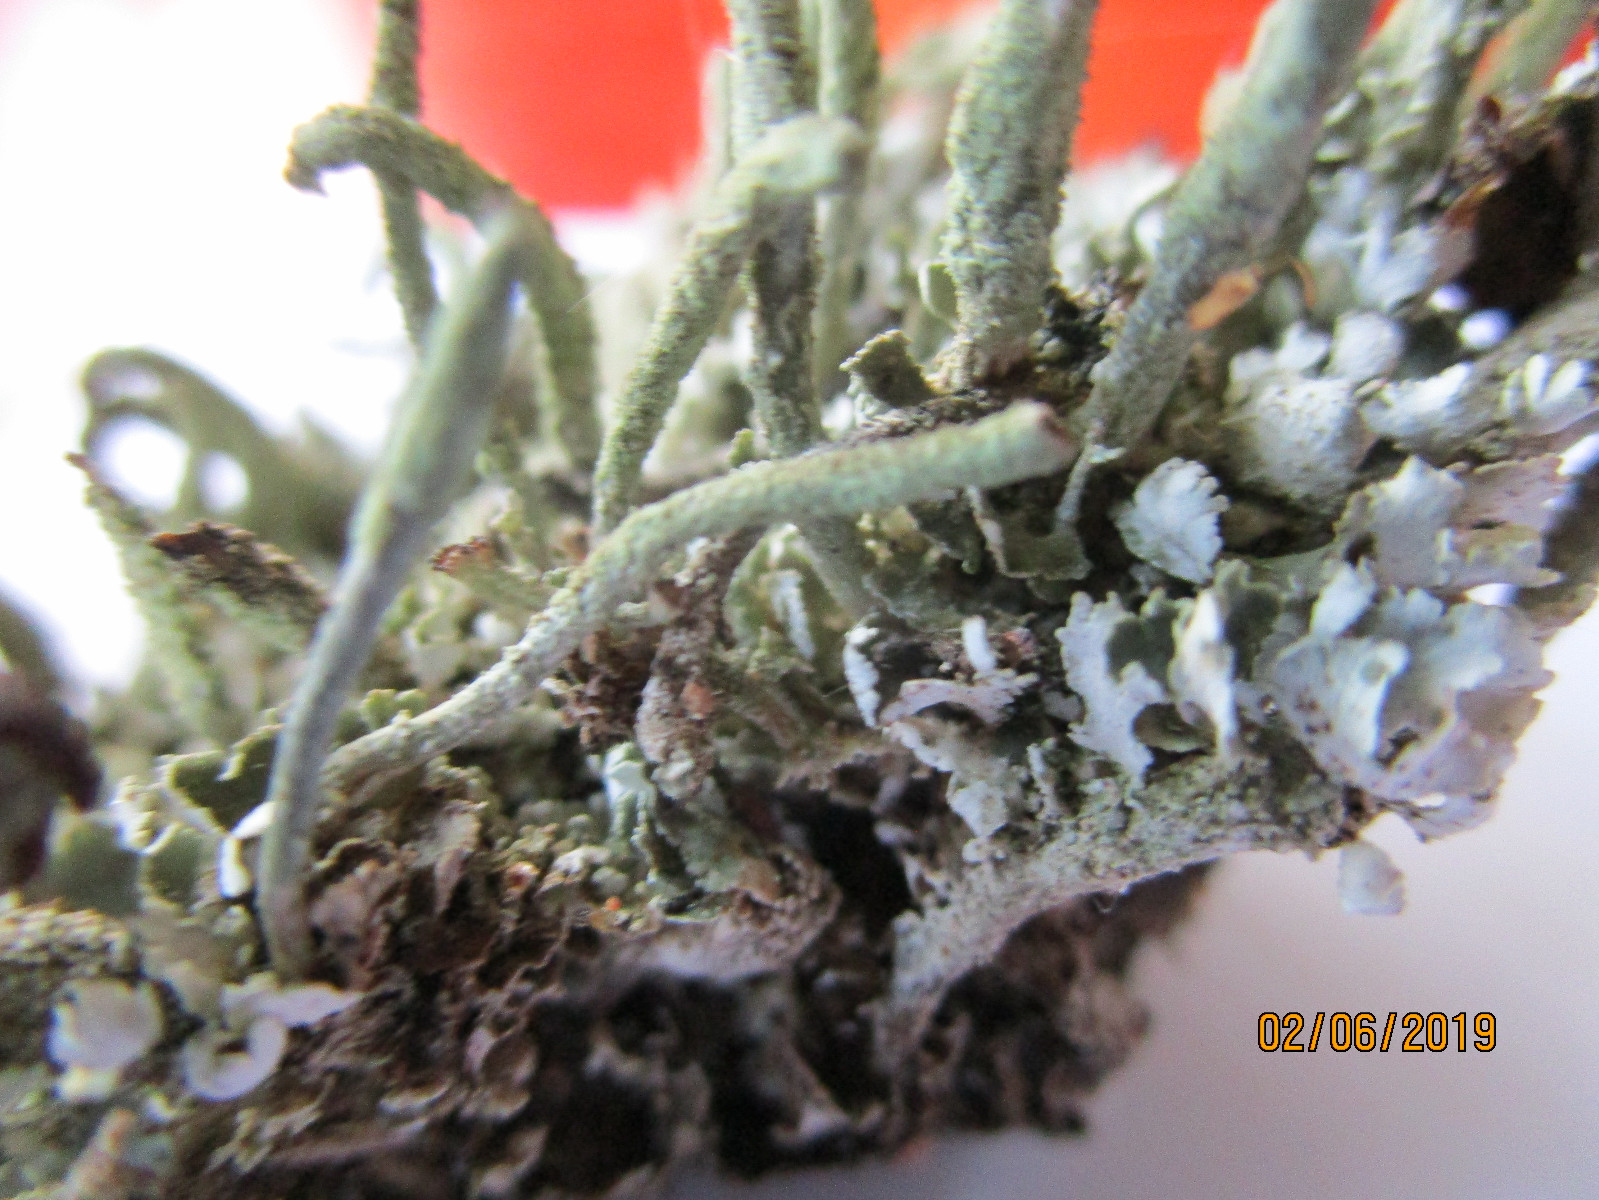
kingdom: Fungi
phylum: Ascomycota
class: Lecanoromycetes
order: Lecanorales
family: Cladoniaceae
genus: Cladonia
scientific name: Cladonia ochrochlora
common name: stød-bægerlav
